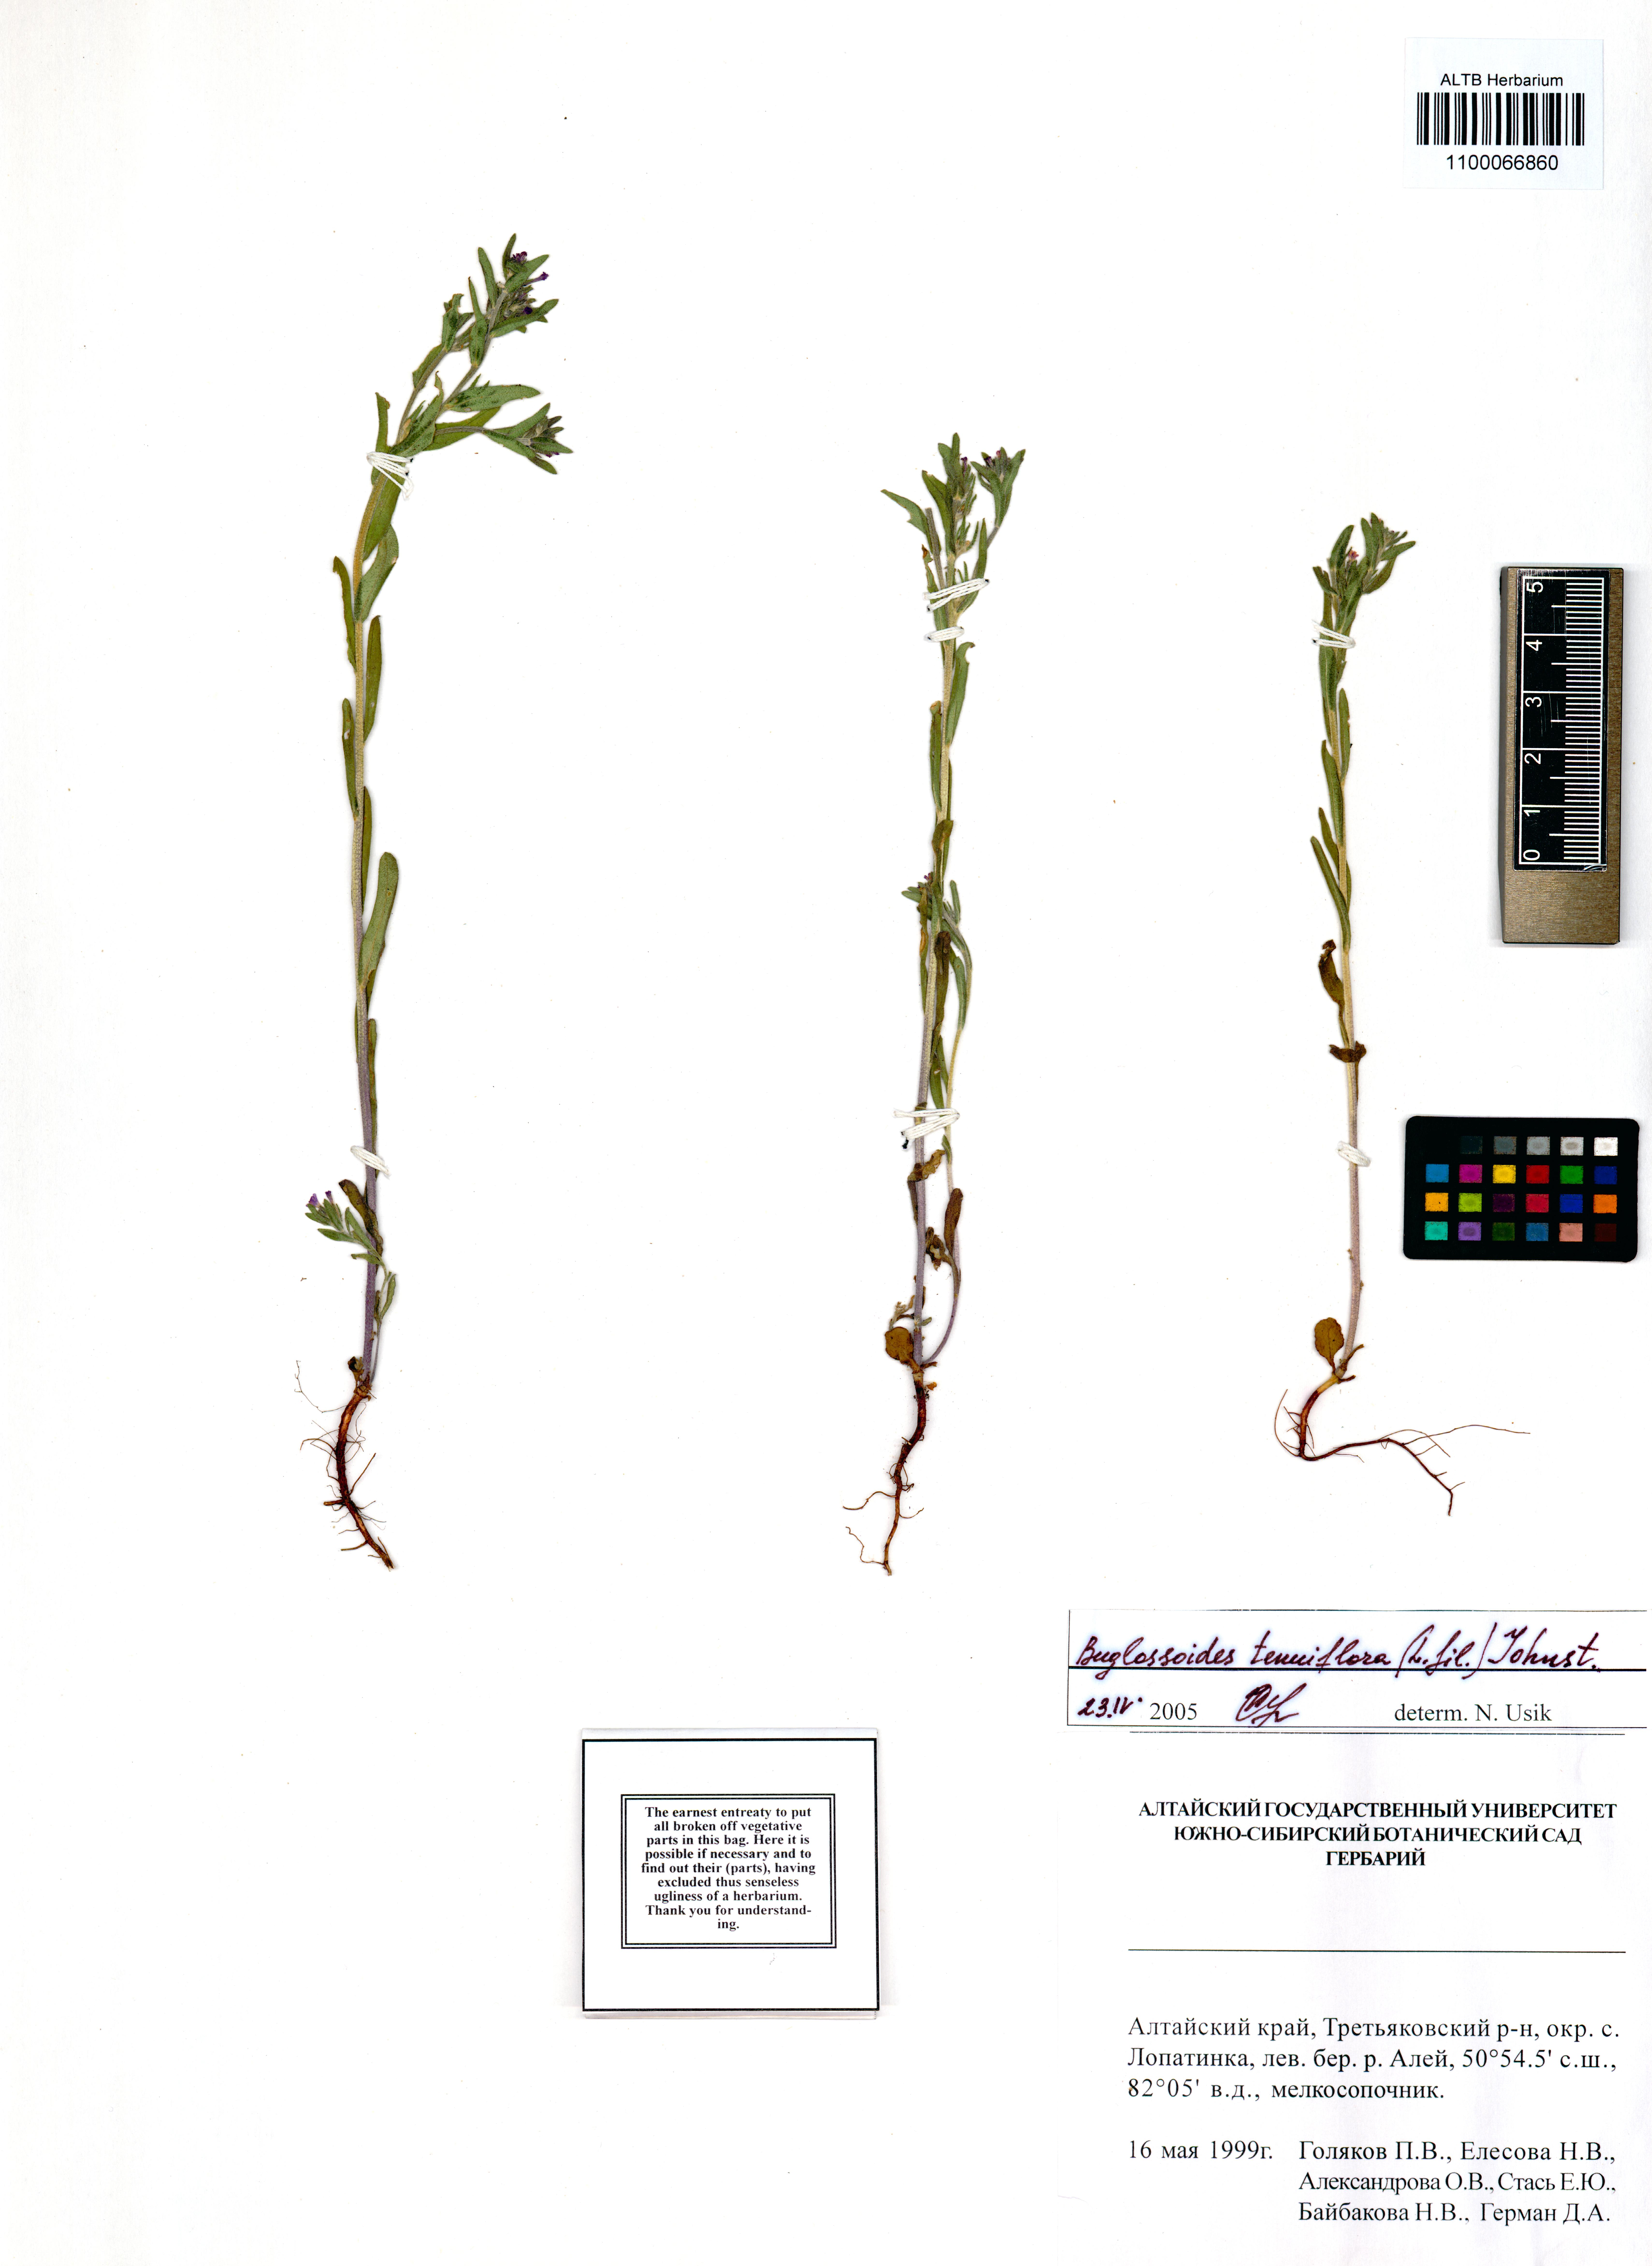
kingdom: Plantae
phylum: Tracheophyta
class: Magnoliopsida
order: Boraginales
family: Boraginaceae
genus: Buglossoides
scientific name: Buglossoides tenuiflora
